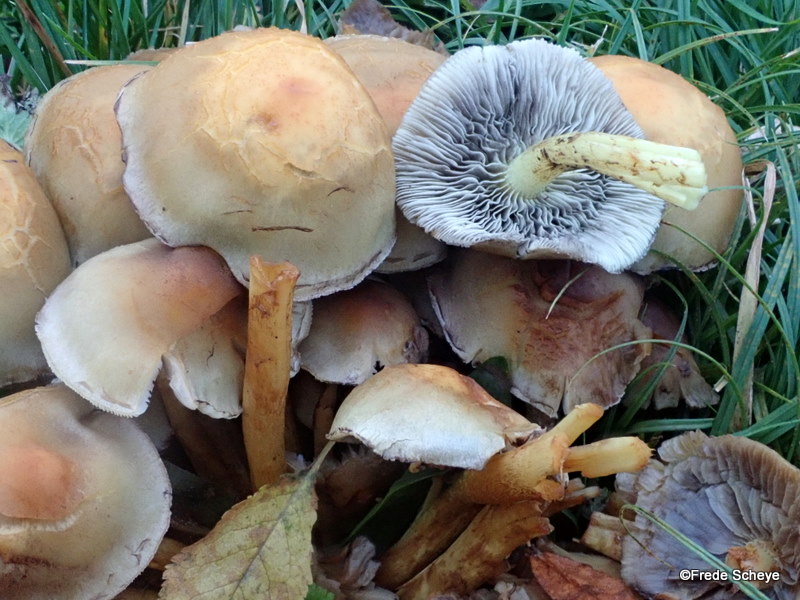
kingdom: Fungi
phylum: Basidiomycota
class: Agaricomycetes
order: Agaricales
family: Strophariaceae
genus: Hypholoma
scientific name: Hypholoma fasciculare
